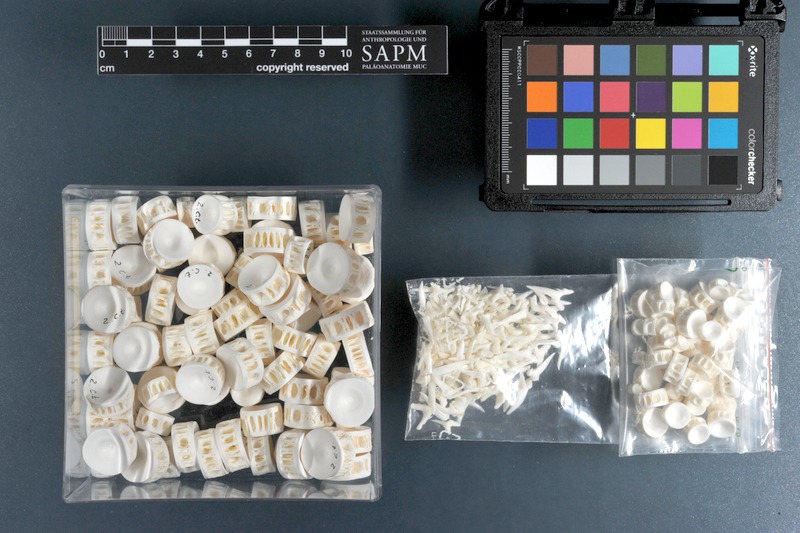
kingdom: Animalia
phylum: Chordata
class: Elasmobranchii
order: Lamniformes
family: Odontaspididae
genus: Carcharias
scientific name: Carcharias taurus
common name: Sand shark
